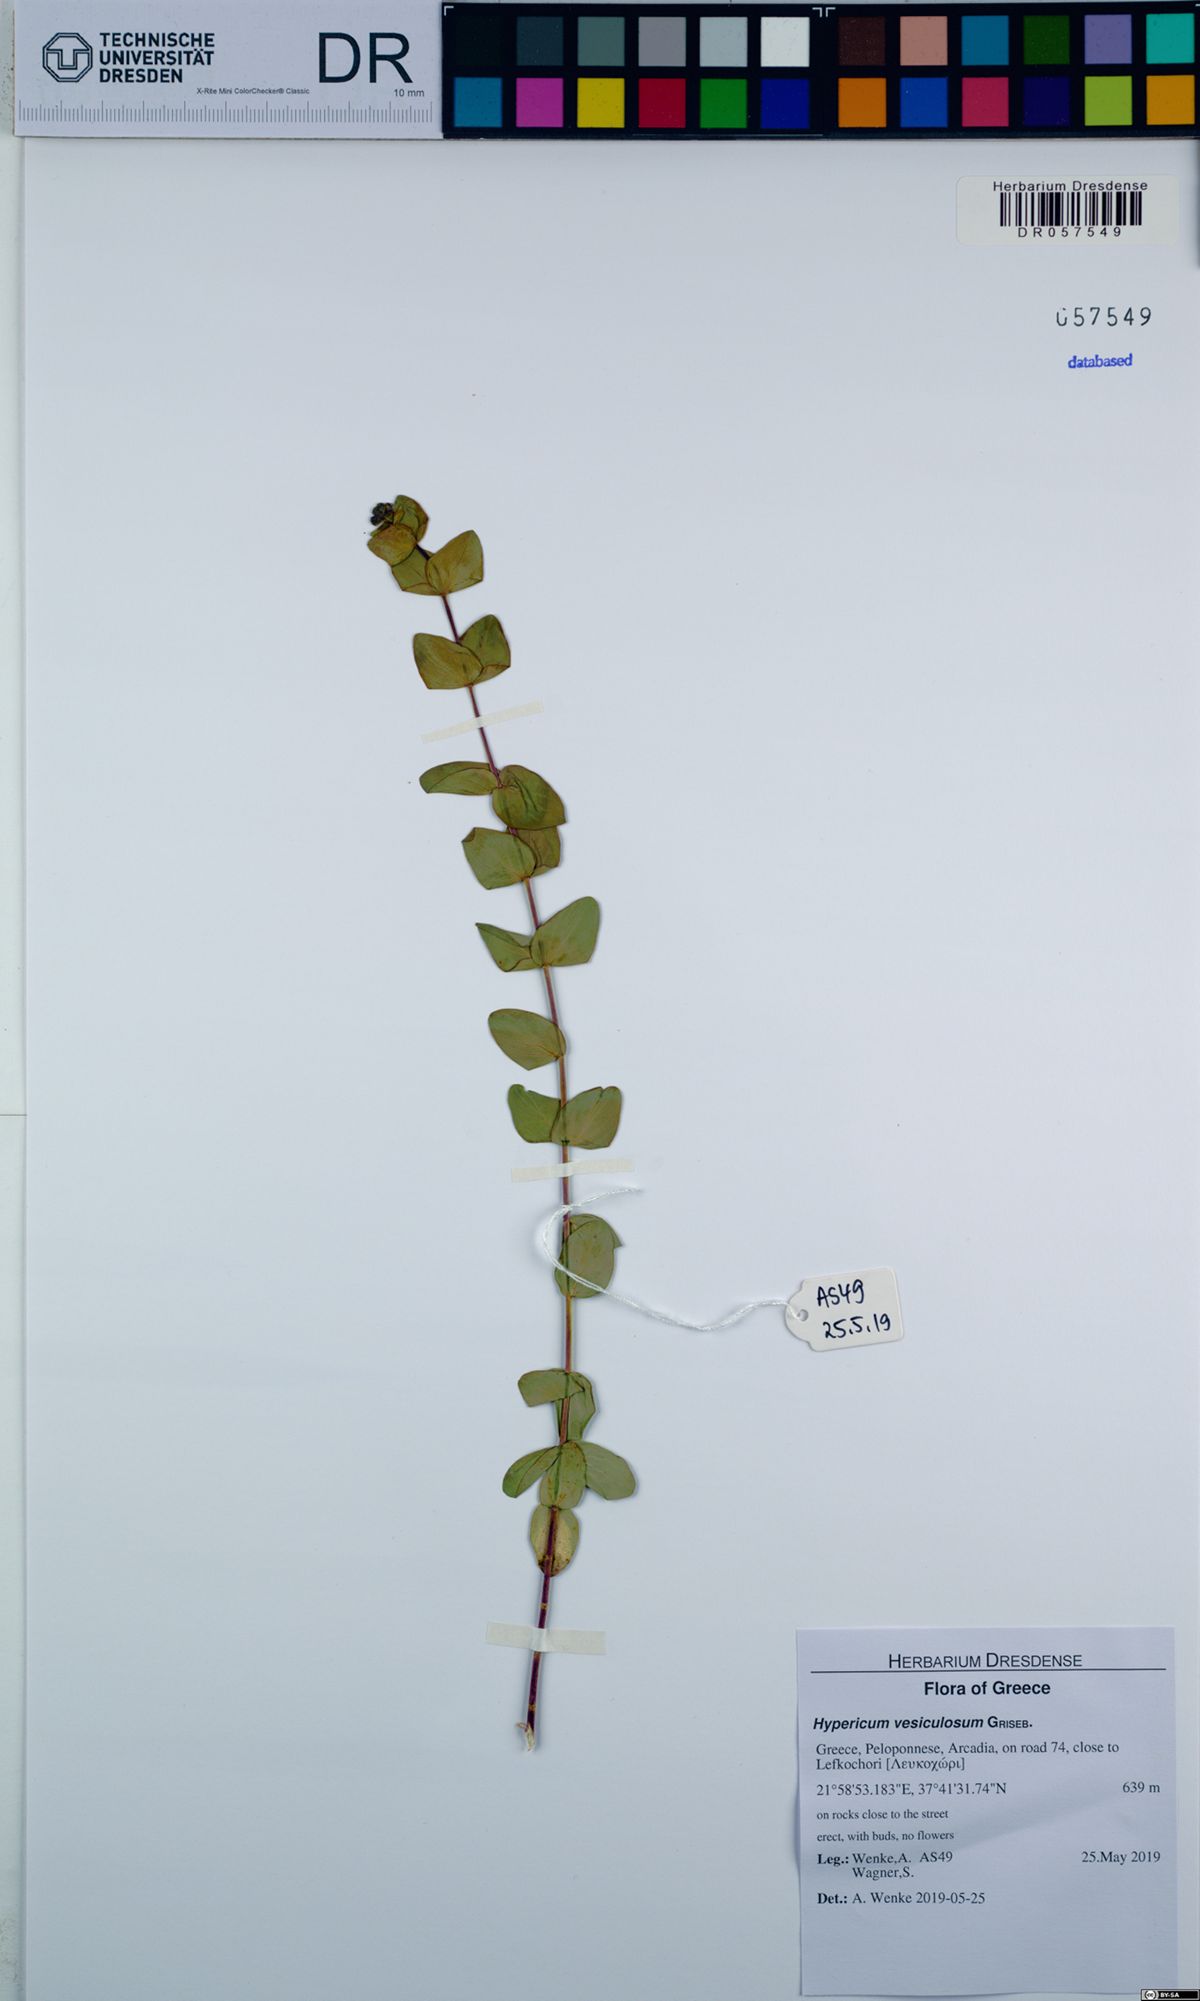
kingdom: Plantae
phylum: Tracheophyta
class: Magnoliopsida
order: Malpighiales
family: Hypericaceae
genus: Hypericum
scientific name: Hypericum vesiculosum
